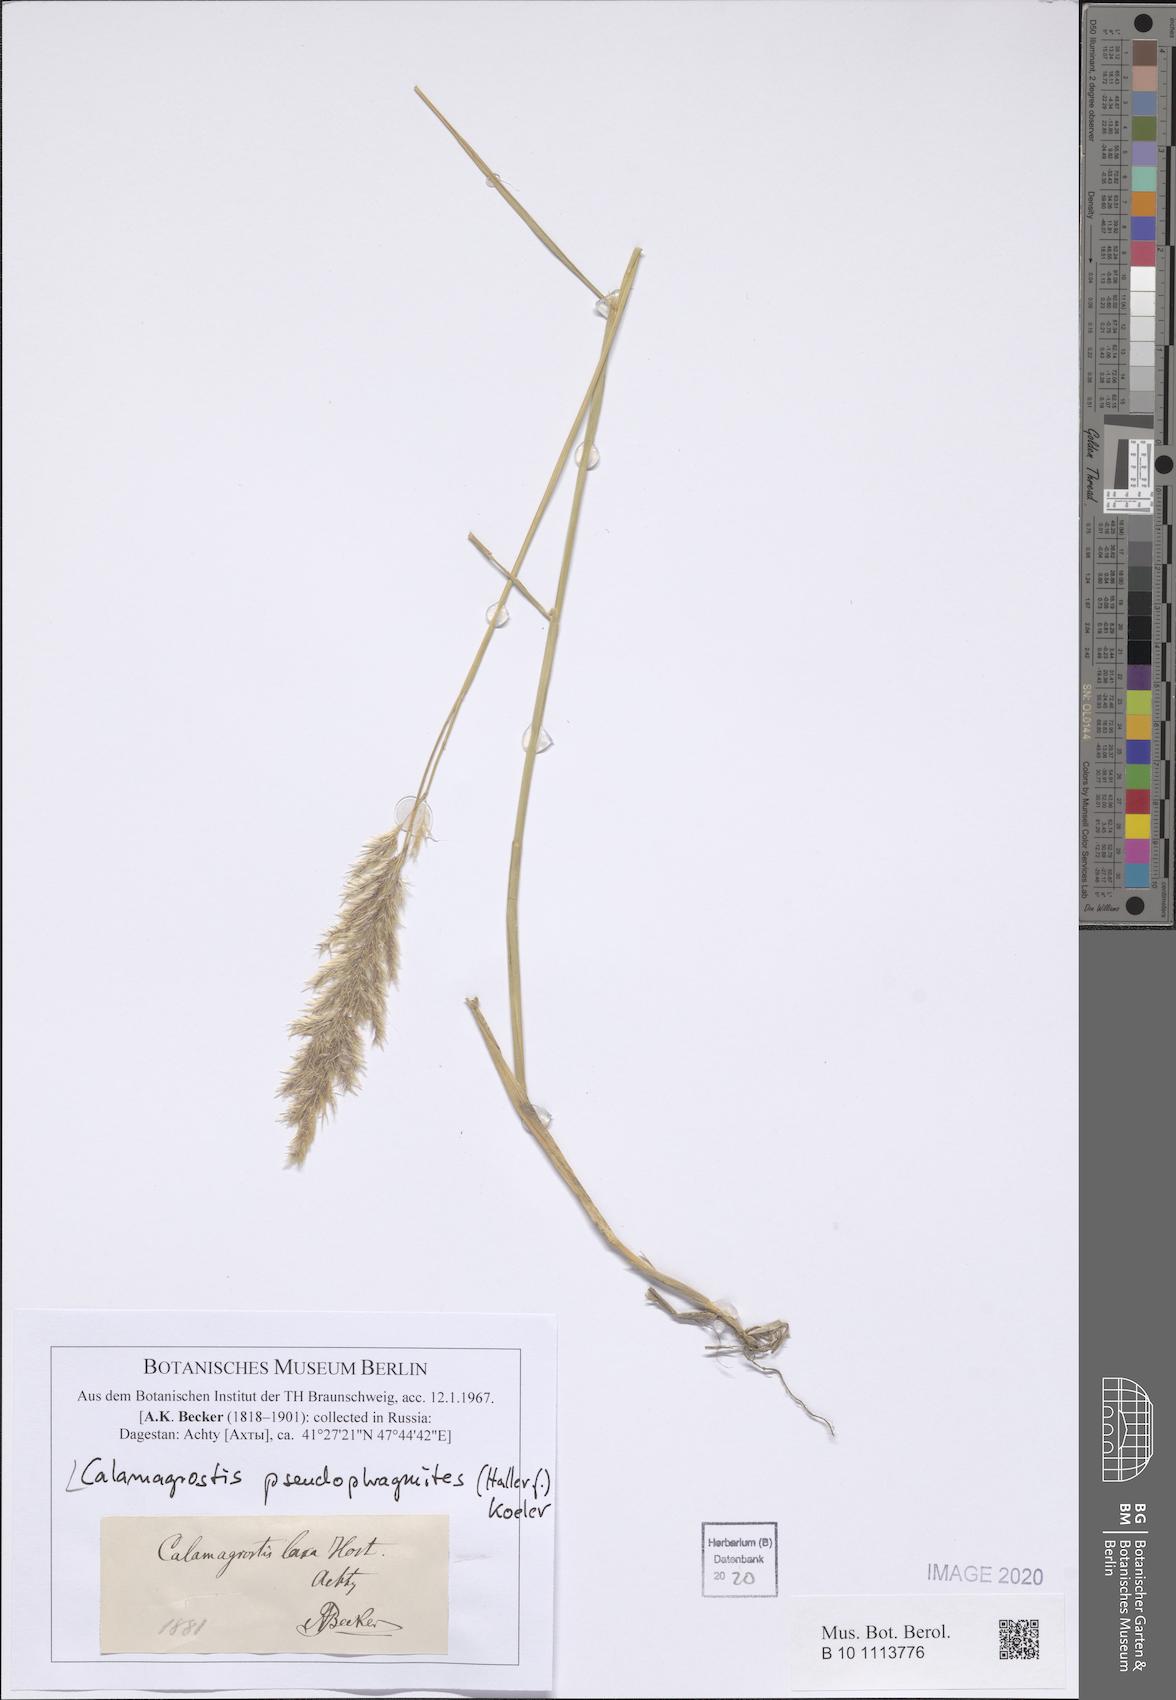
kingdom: Plantae
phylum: Tracheophyta
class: Liliopsida
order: Poales
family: Poaceae
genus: Calamagrostis
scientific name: Calamagrostis pseudophragmites
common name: Coastal small-reed
